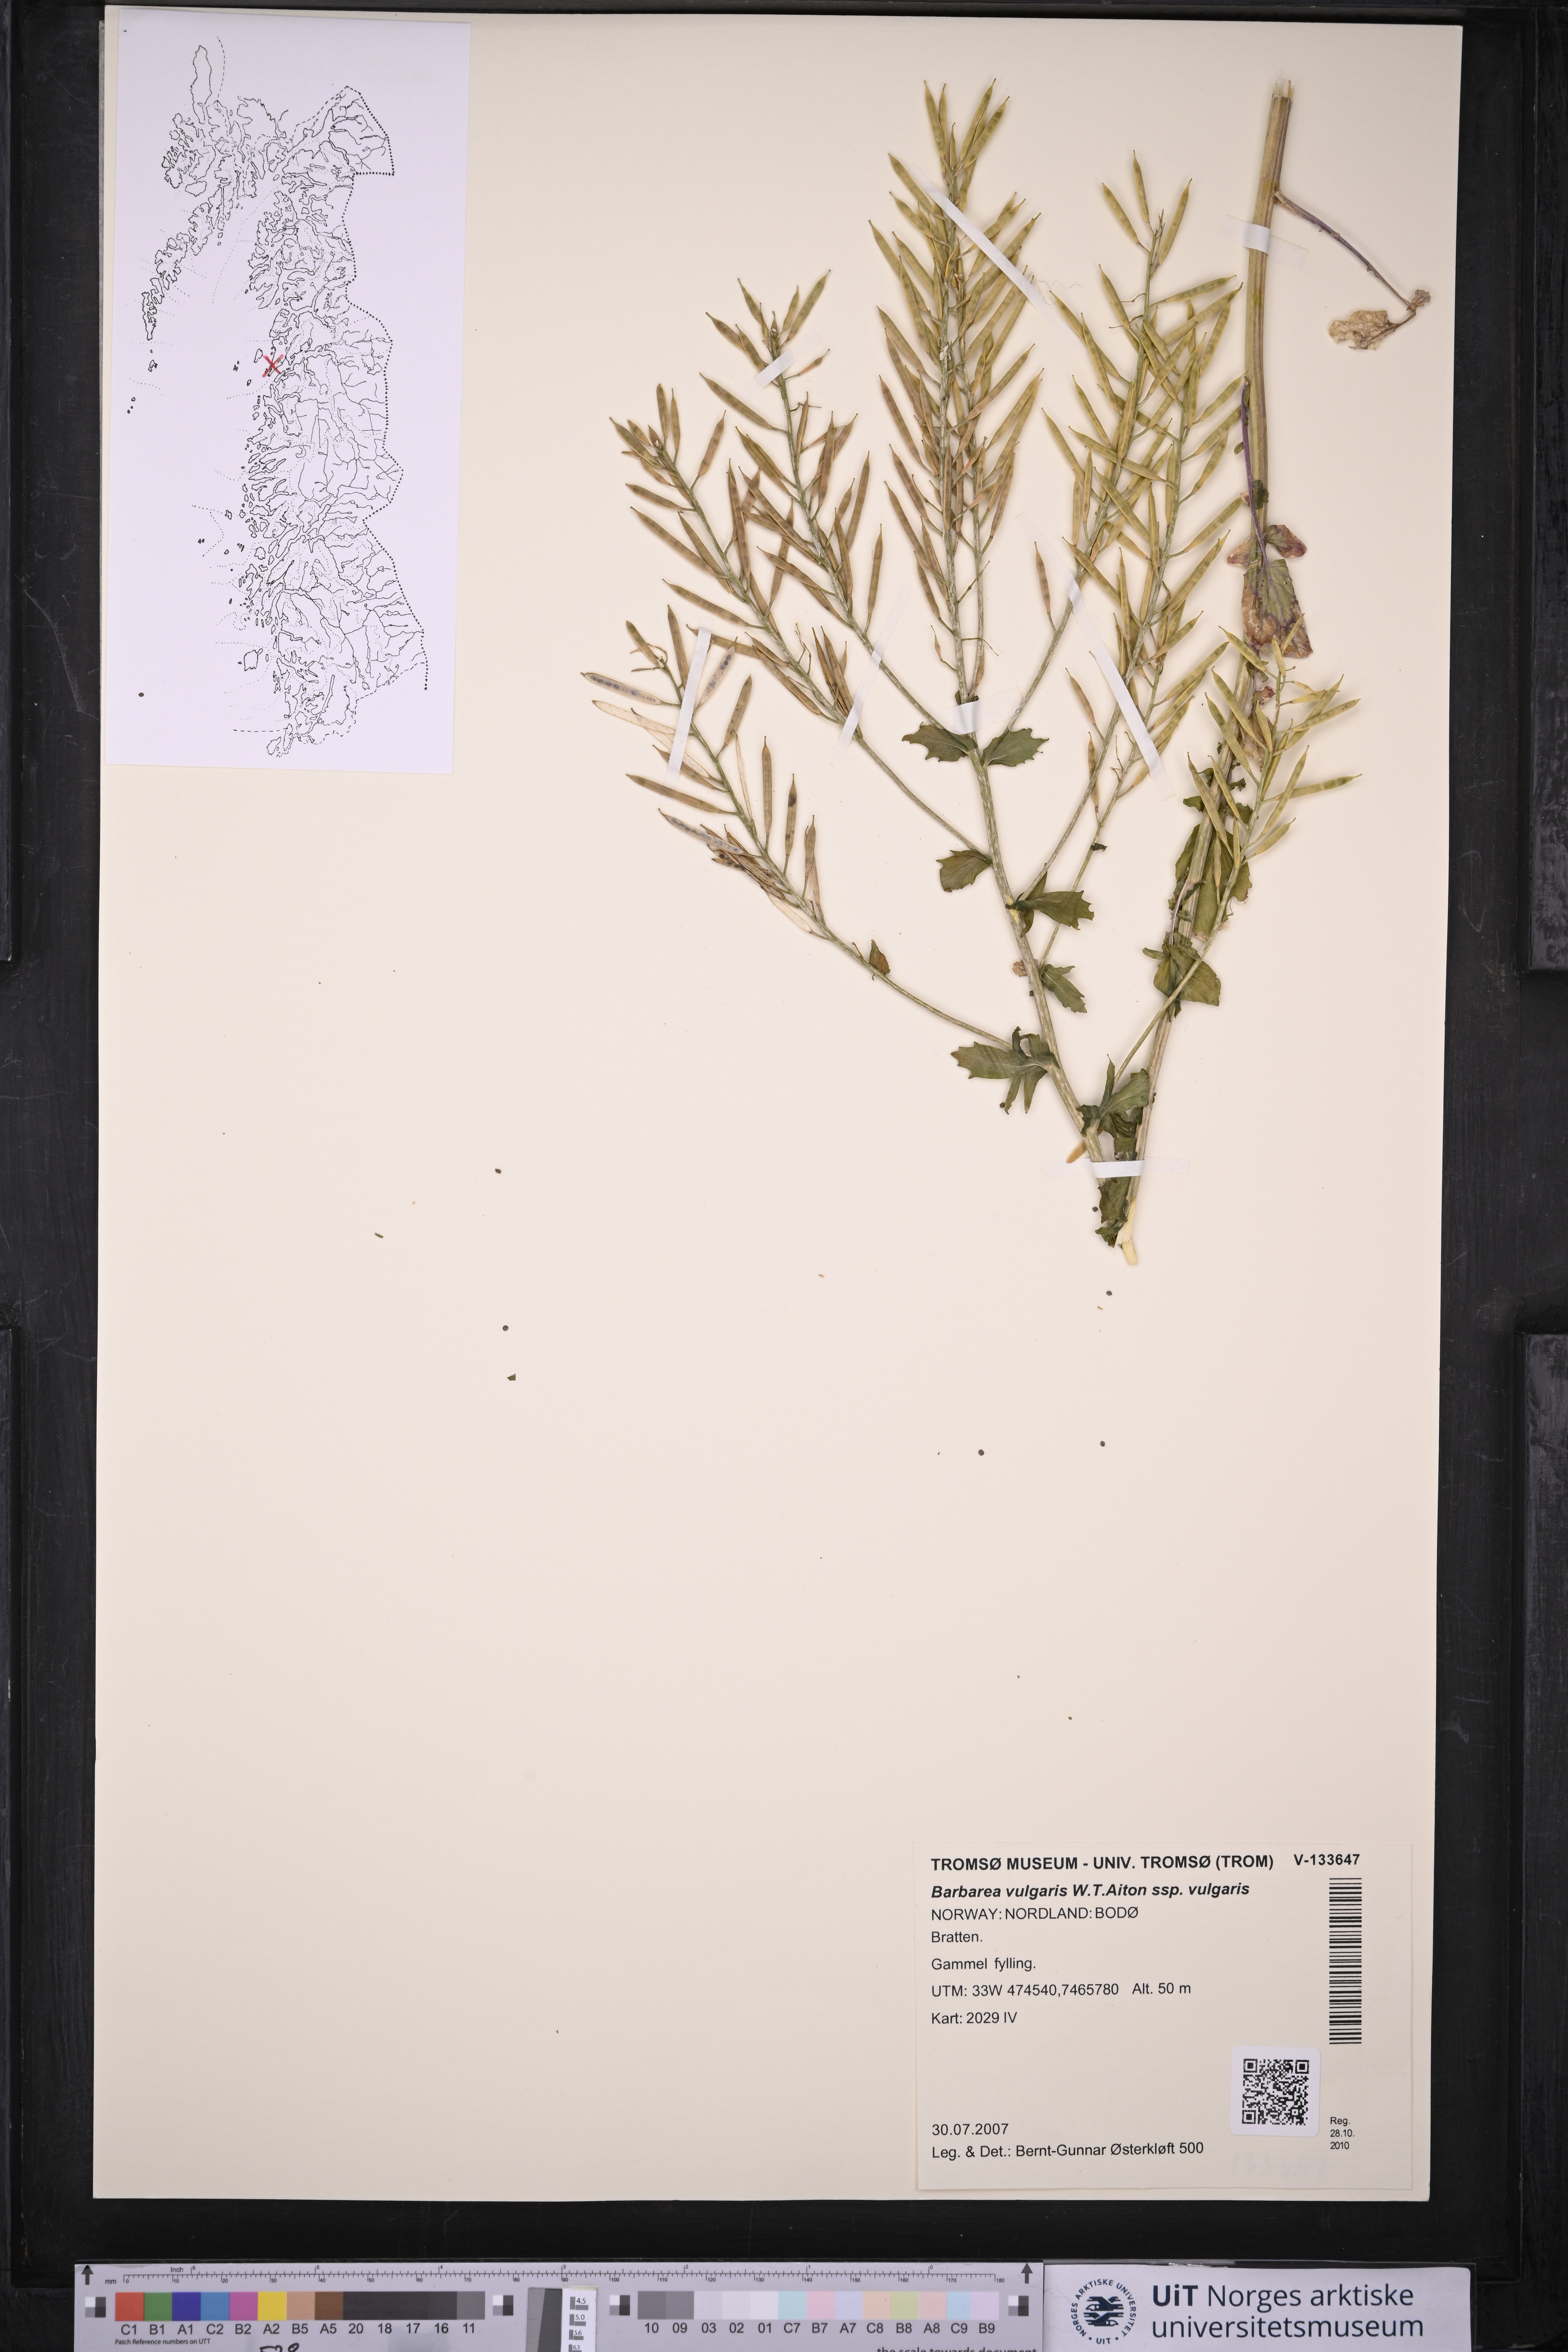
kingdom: Plantae
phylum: Tracheophyta
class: Magnoliopsida
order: Brassicales
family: Brassicaceae
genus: Barbarea
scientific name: Barbarea vulgaris
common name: Cressy-greens
